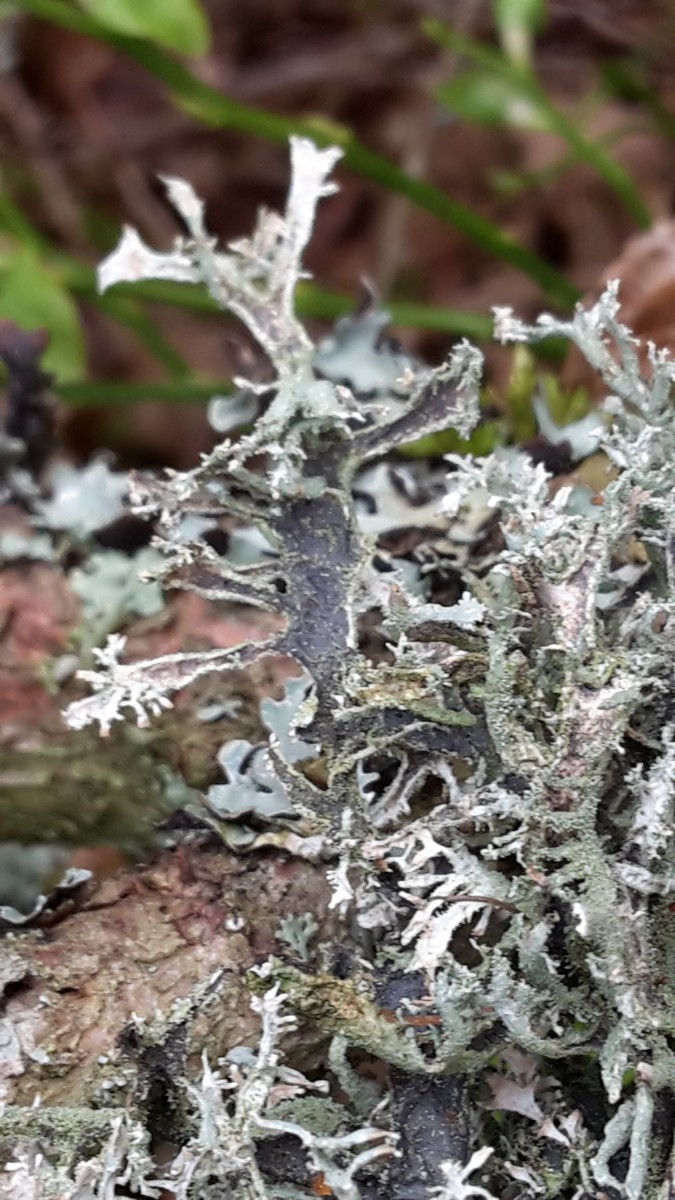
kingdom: Fungi
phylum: Ascomycota
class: Lecanoromycetes
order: Lecanorales
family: Parmeliaceae
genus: Pseudevernia
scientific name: Pseudevernia furfuracea
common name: grå fyrrelav
